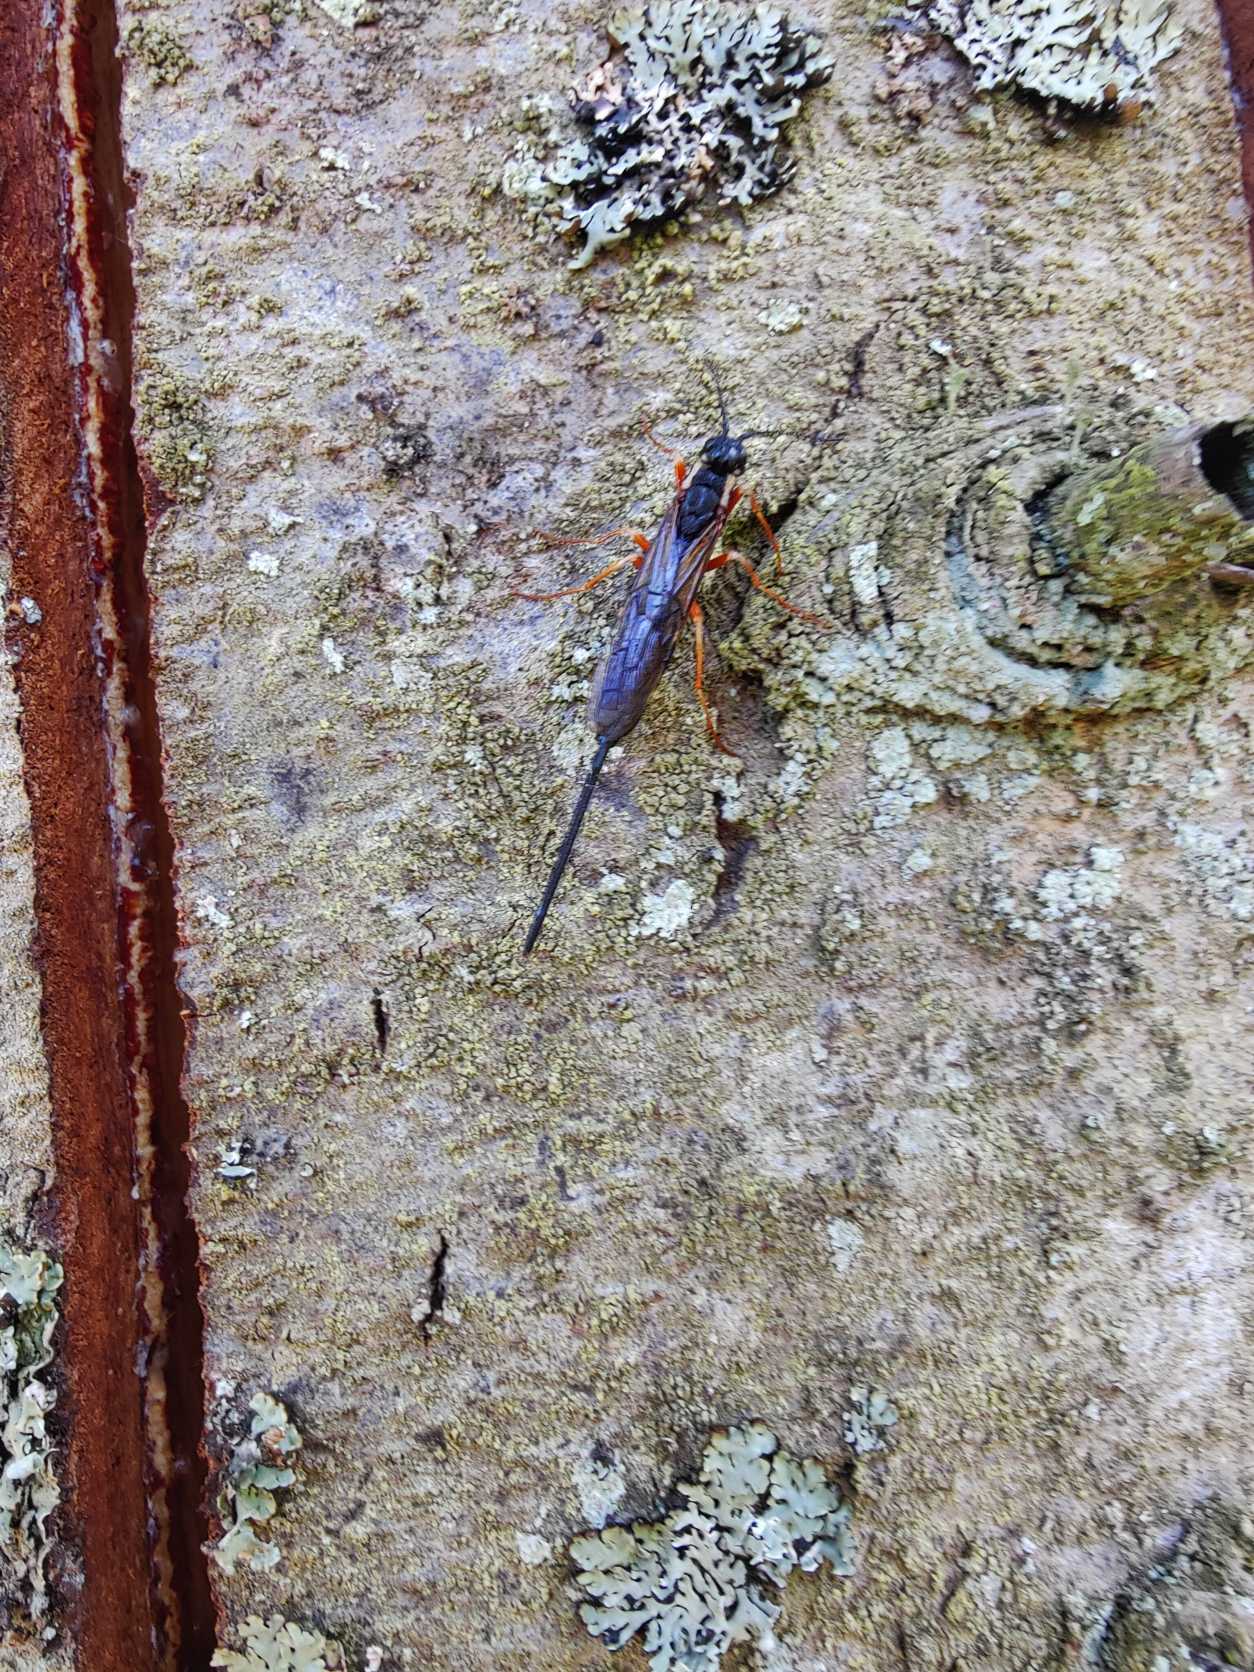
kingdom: Animalia
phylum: Arthropoda
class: Insecta
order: Hymenoptera
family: Siricidae
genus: Xeris
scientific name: Xeris
